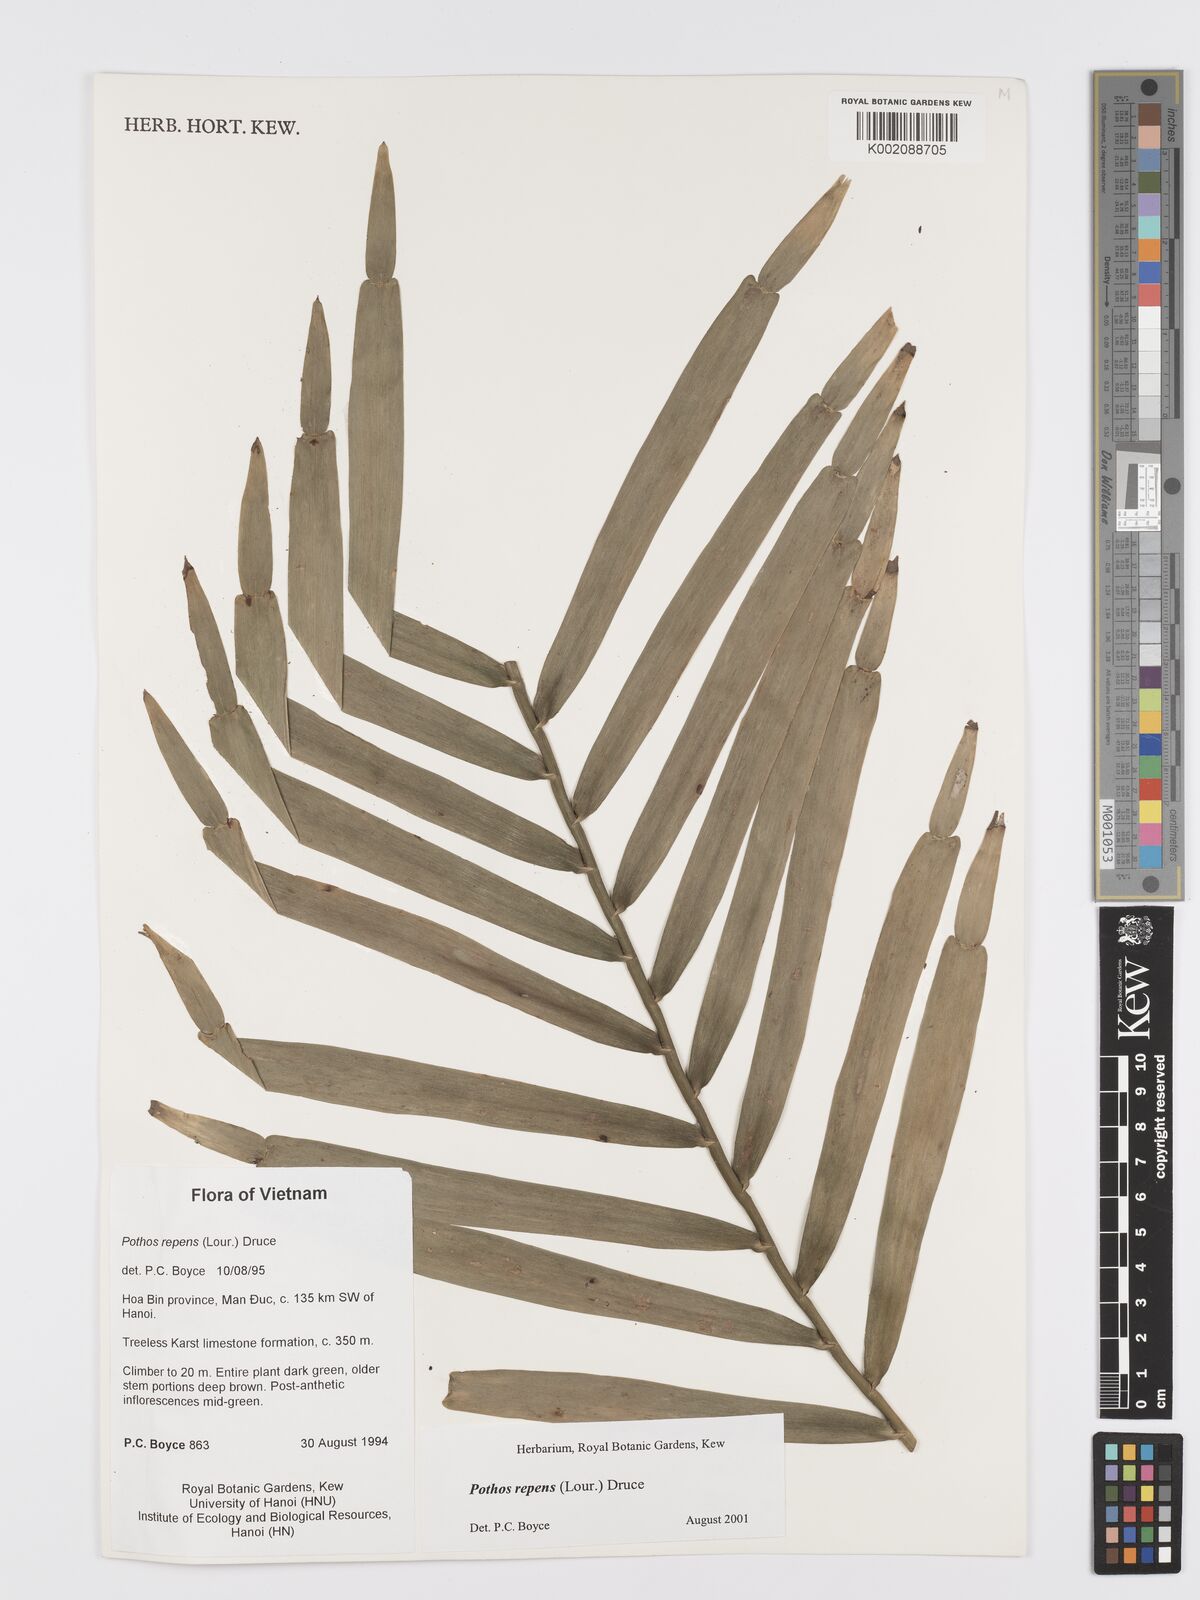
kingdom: Plantae
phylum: Tracheophyta
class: Liliopsida
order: Alismatales
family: Araceae
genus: Pothos
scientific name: Pothos repens
